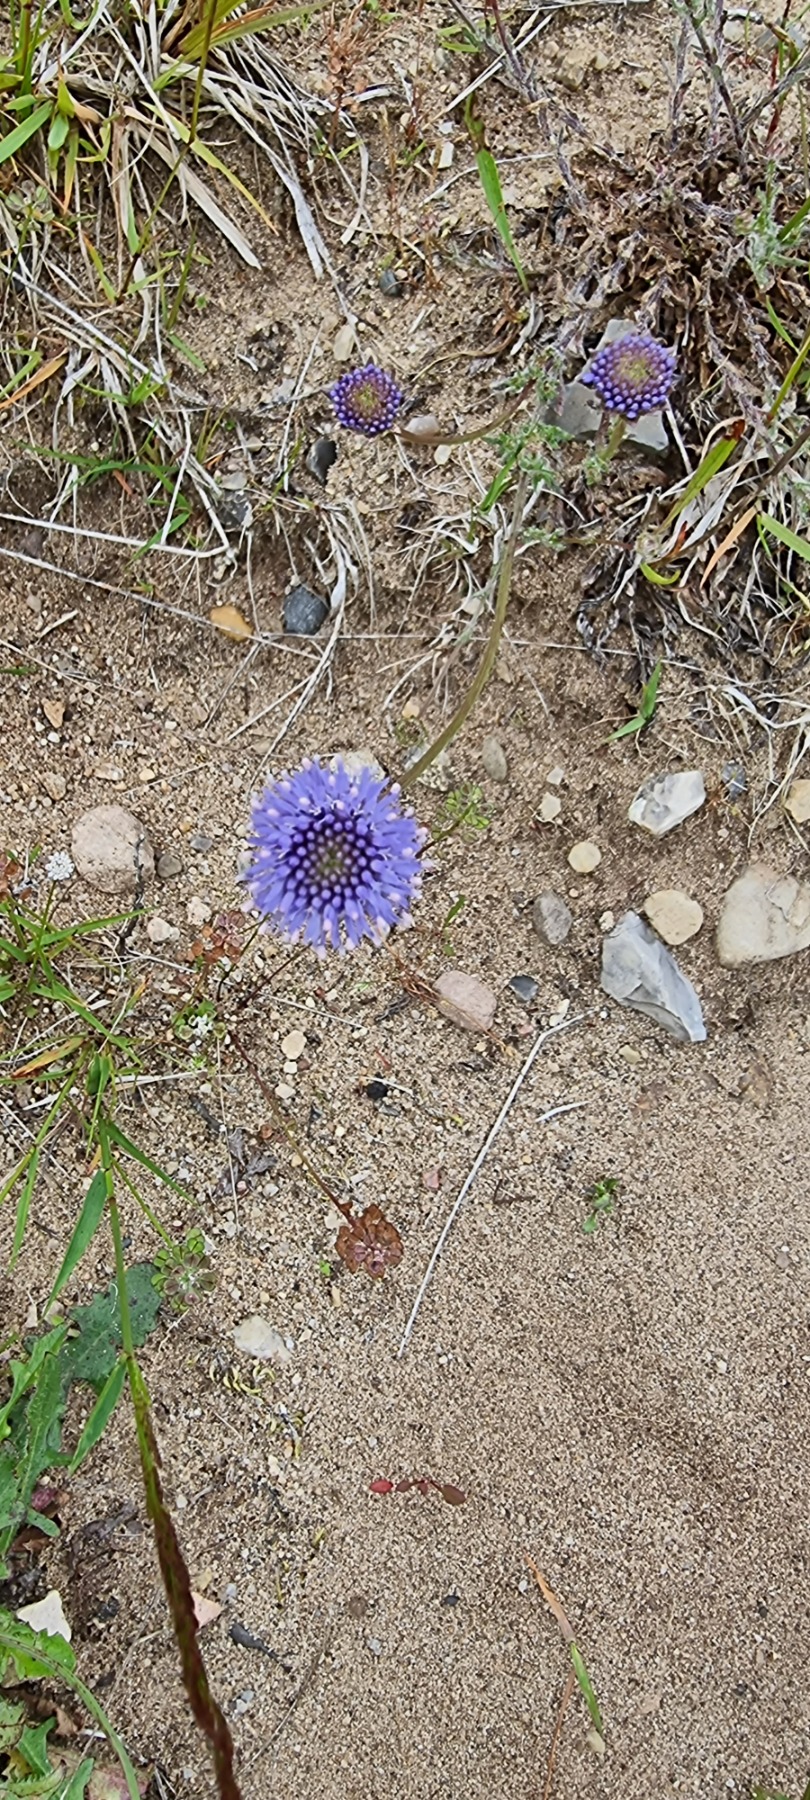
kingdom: Plantae
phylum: Tracheophyta
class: Magnoliopsida
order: Asterales
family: Campanulaceae
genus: Jasione
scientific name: Jasione montana
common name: Blåmunke
